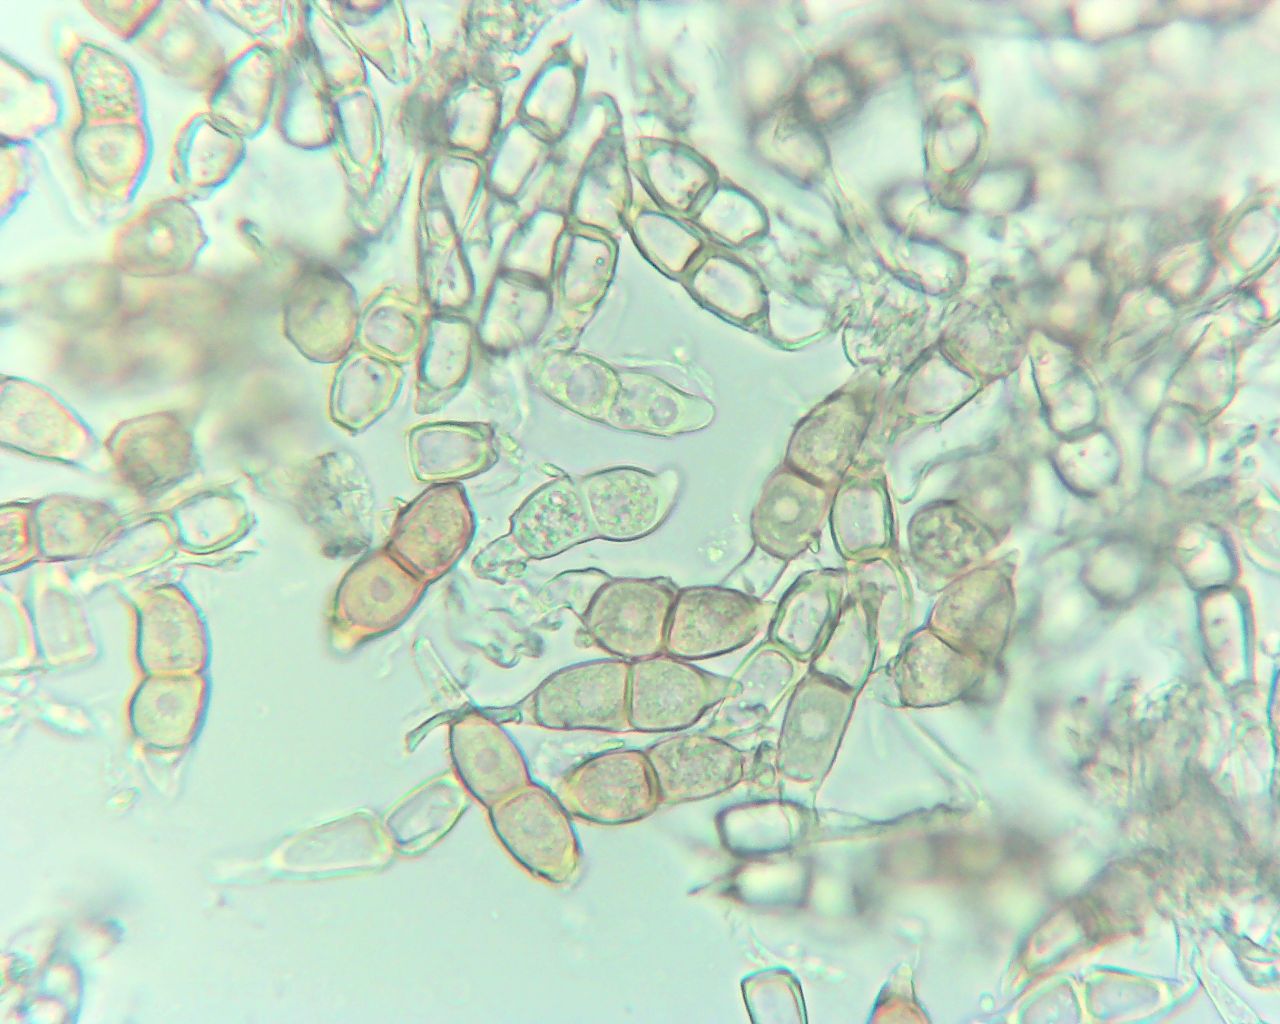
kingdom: Fungi
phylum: Basidiomycota
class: Pucciniomycetes
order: Pucciniales
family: Pucciniaceae
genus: Puccinia
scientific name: Puccinia circaeae
